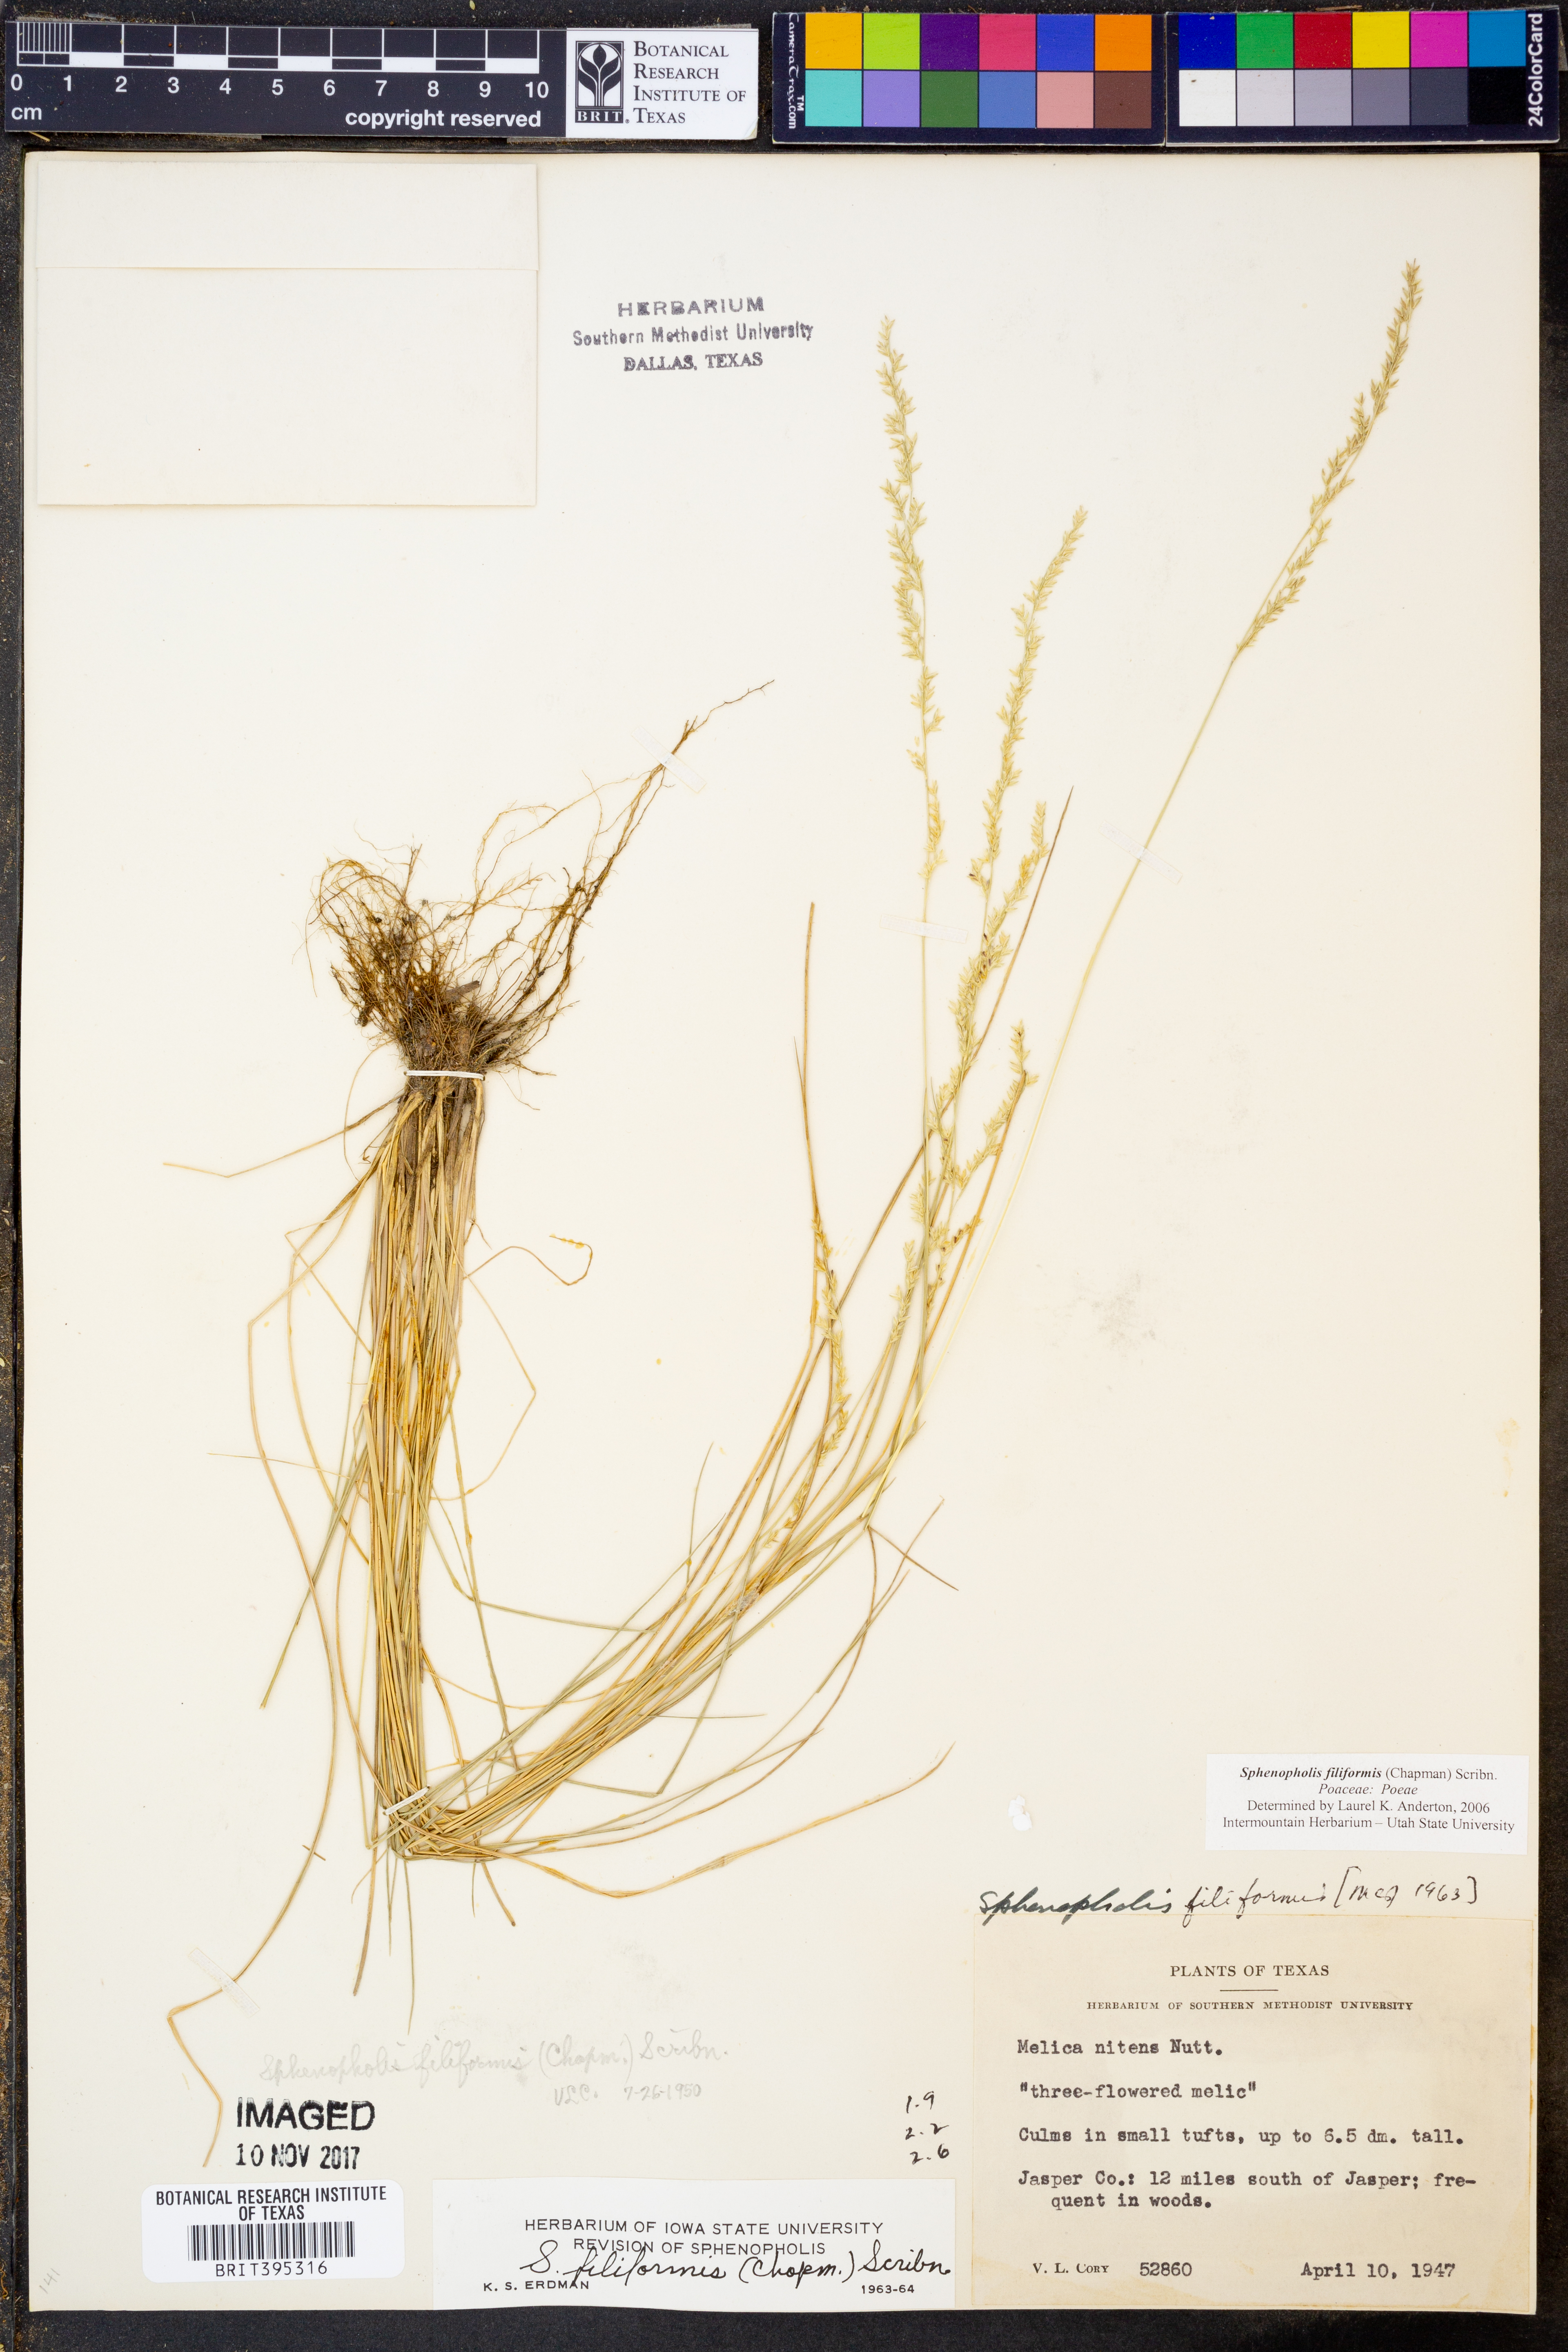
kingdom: Plantae
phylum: Tracheophyta
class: Liliopsida
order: Poales
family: Poaceae
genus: Sphenopholis
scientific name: Sphenopholis filiformis
